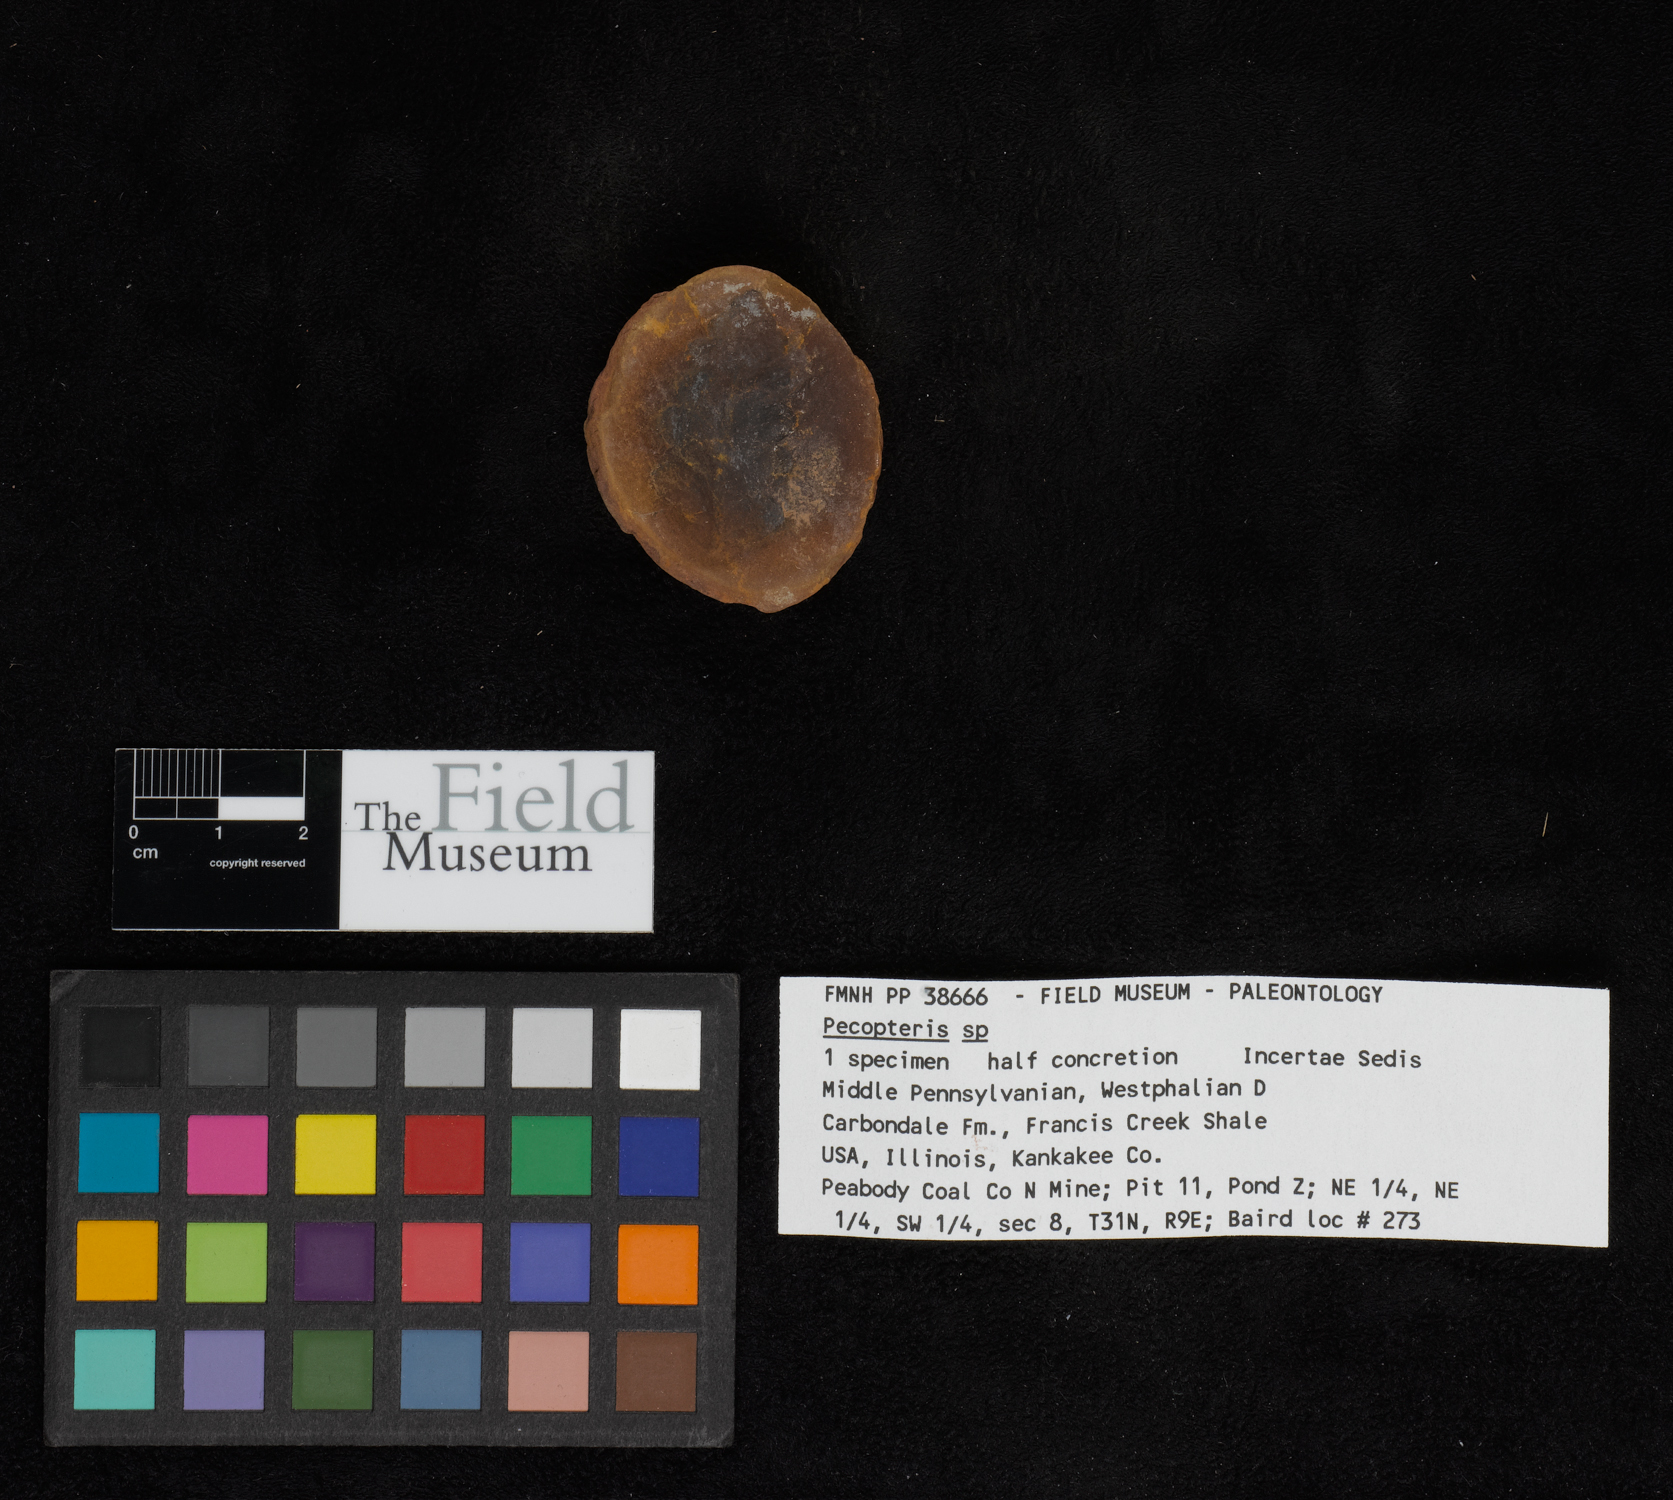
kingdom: Plantae
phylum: Tracheophyta
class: Polypodiopsida
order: Marattiales
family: Asterothecaceae
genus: Pecopteris
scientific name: Pecopteris
